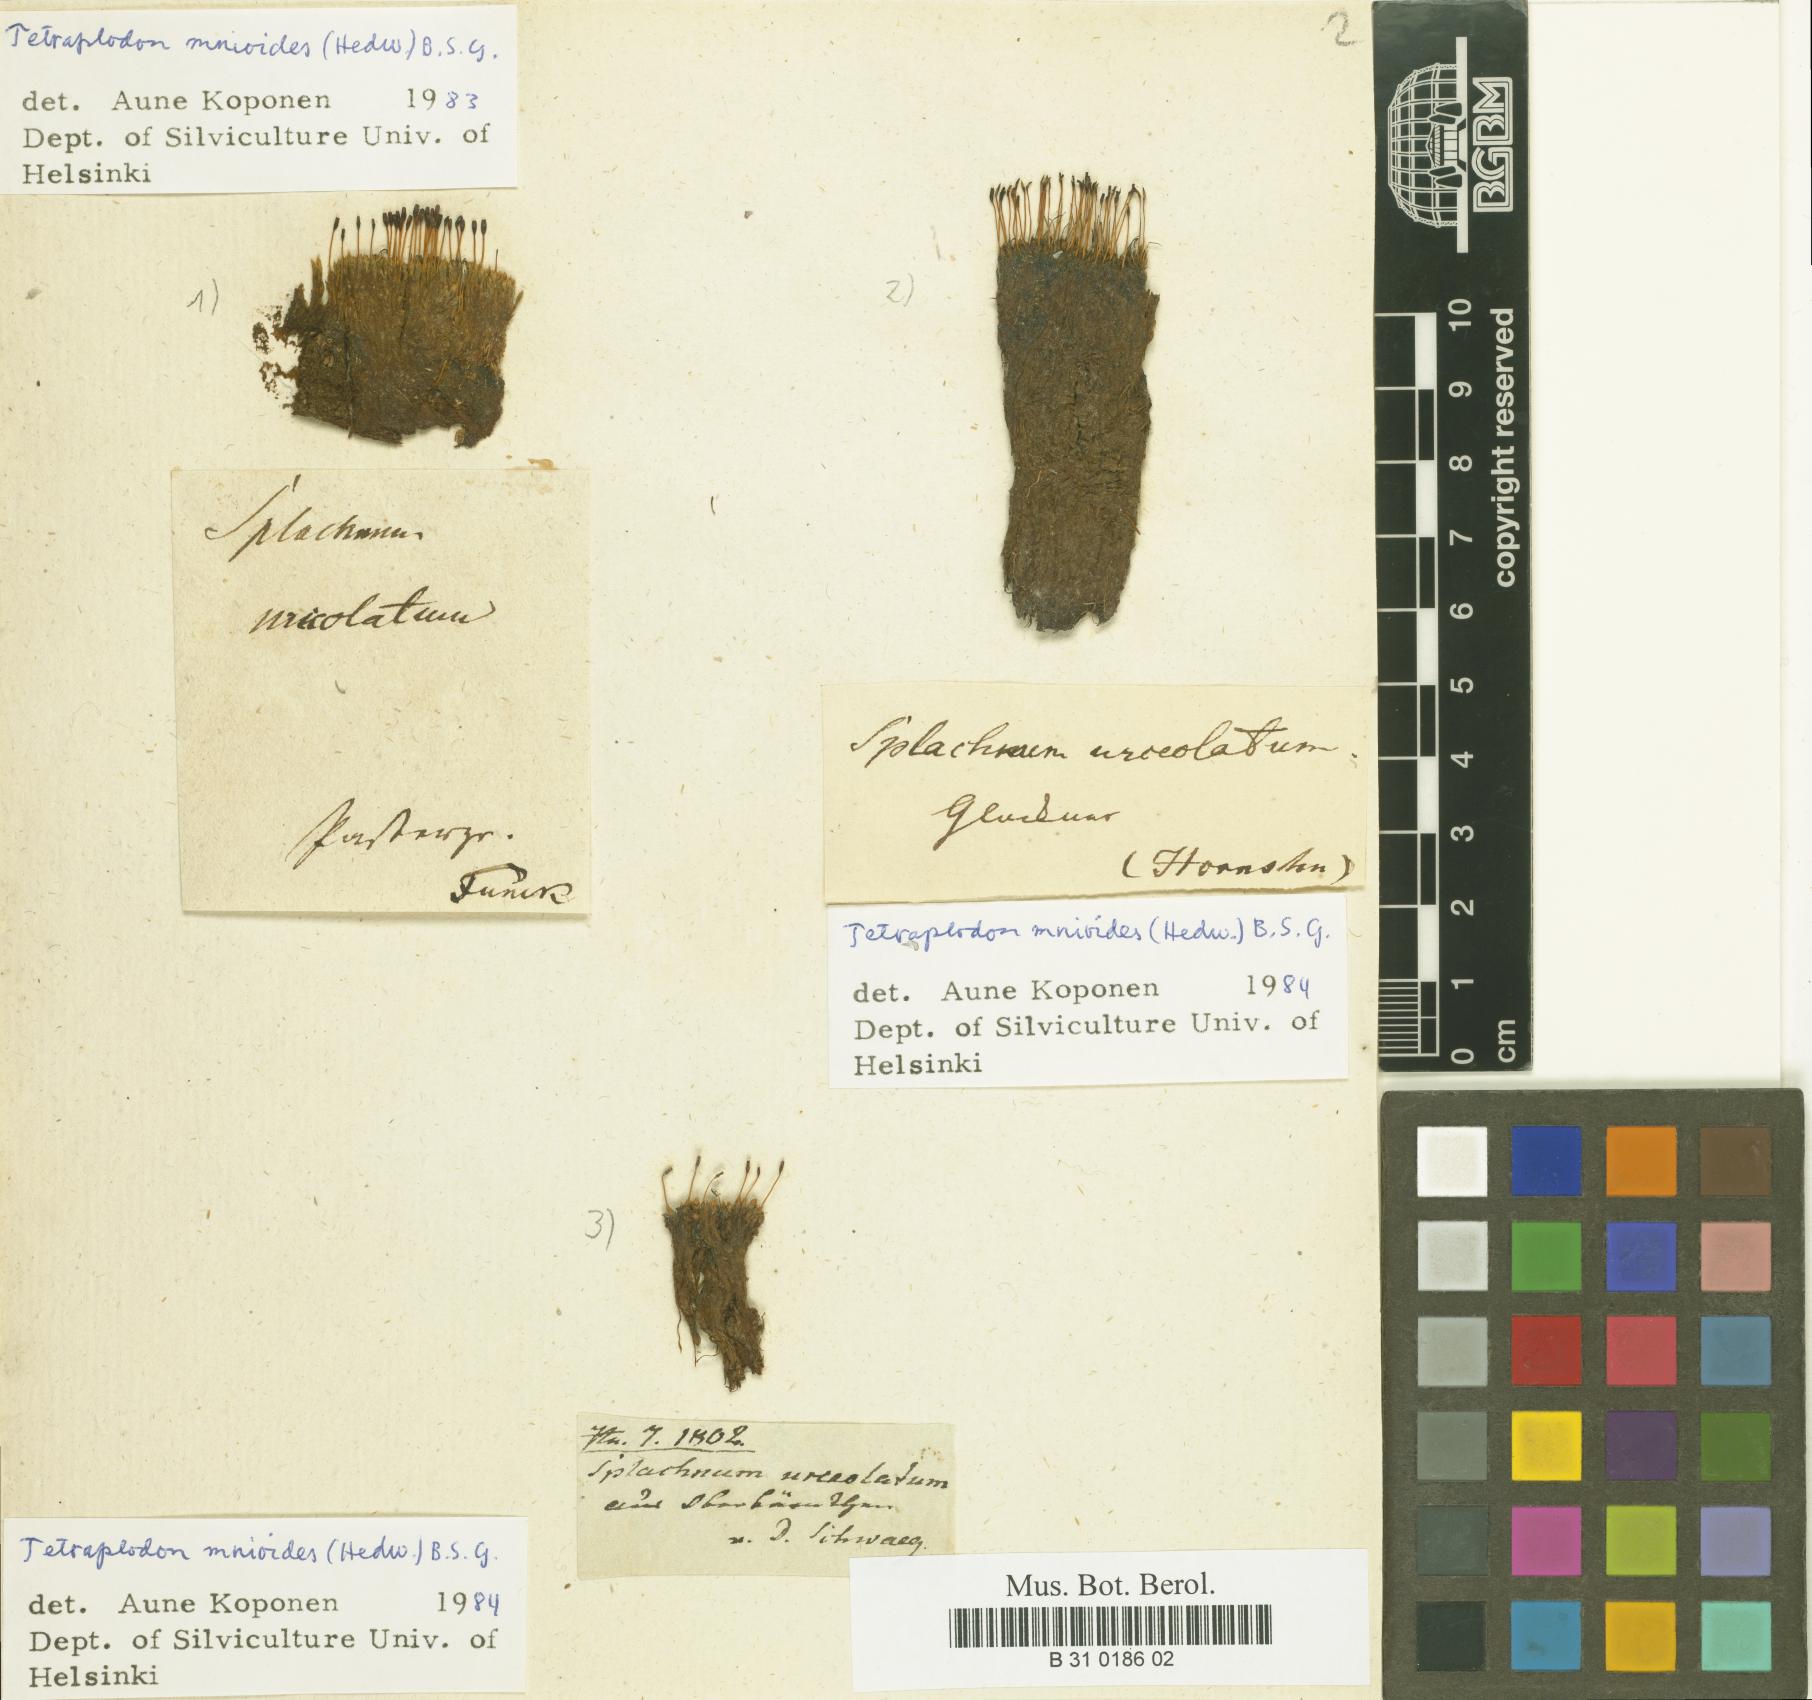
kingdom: Plantae
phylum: Bryophyta
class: Bryopsida
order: Splachnales
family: Splachnaceae
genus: Tetraplodon
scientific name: Tetraplodon urceolatus
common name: Urceolate nitrogen moss
